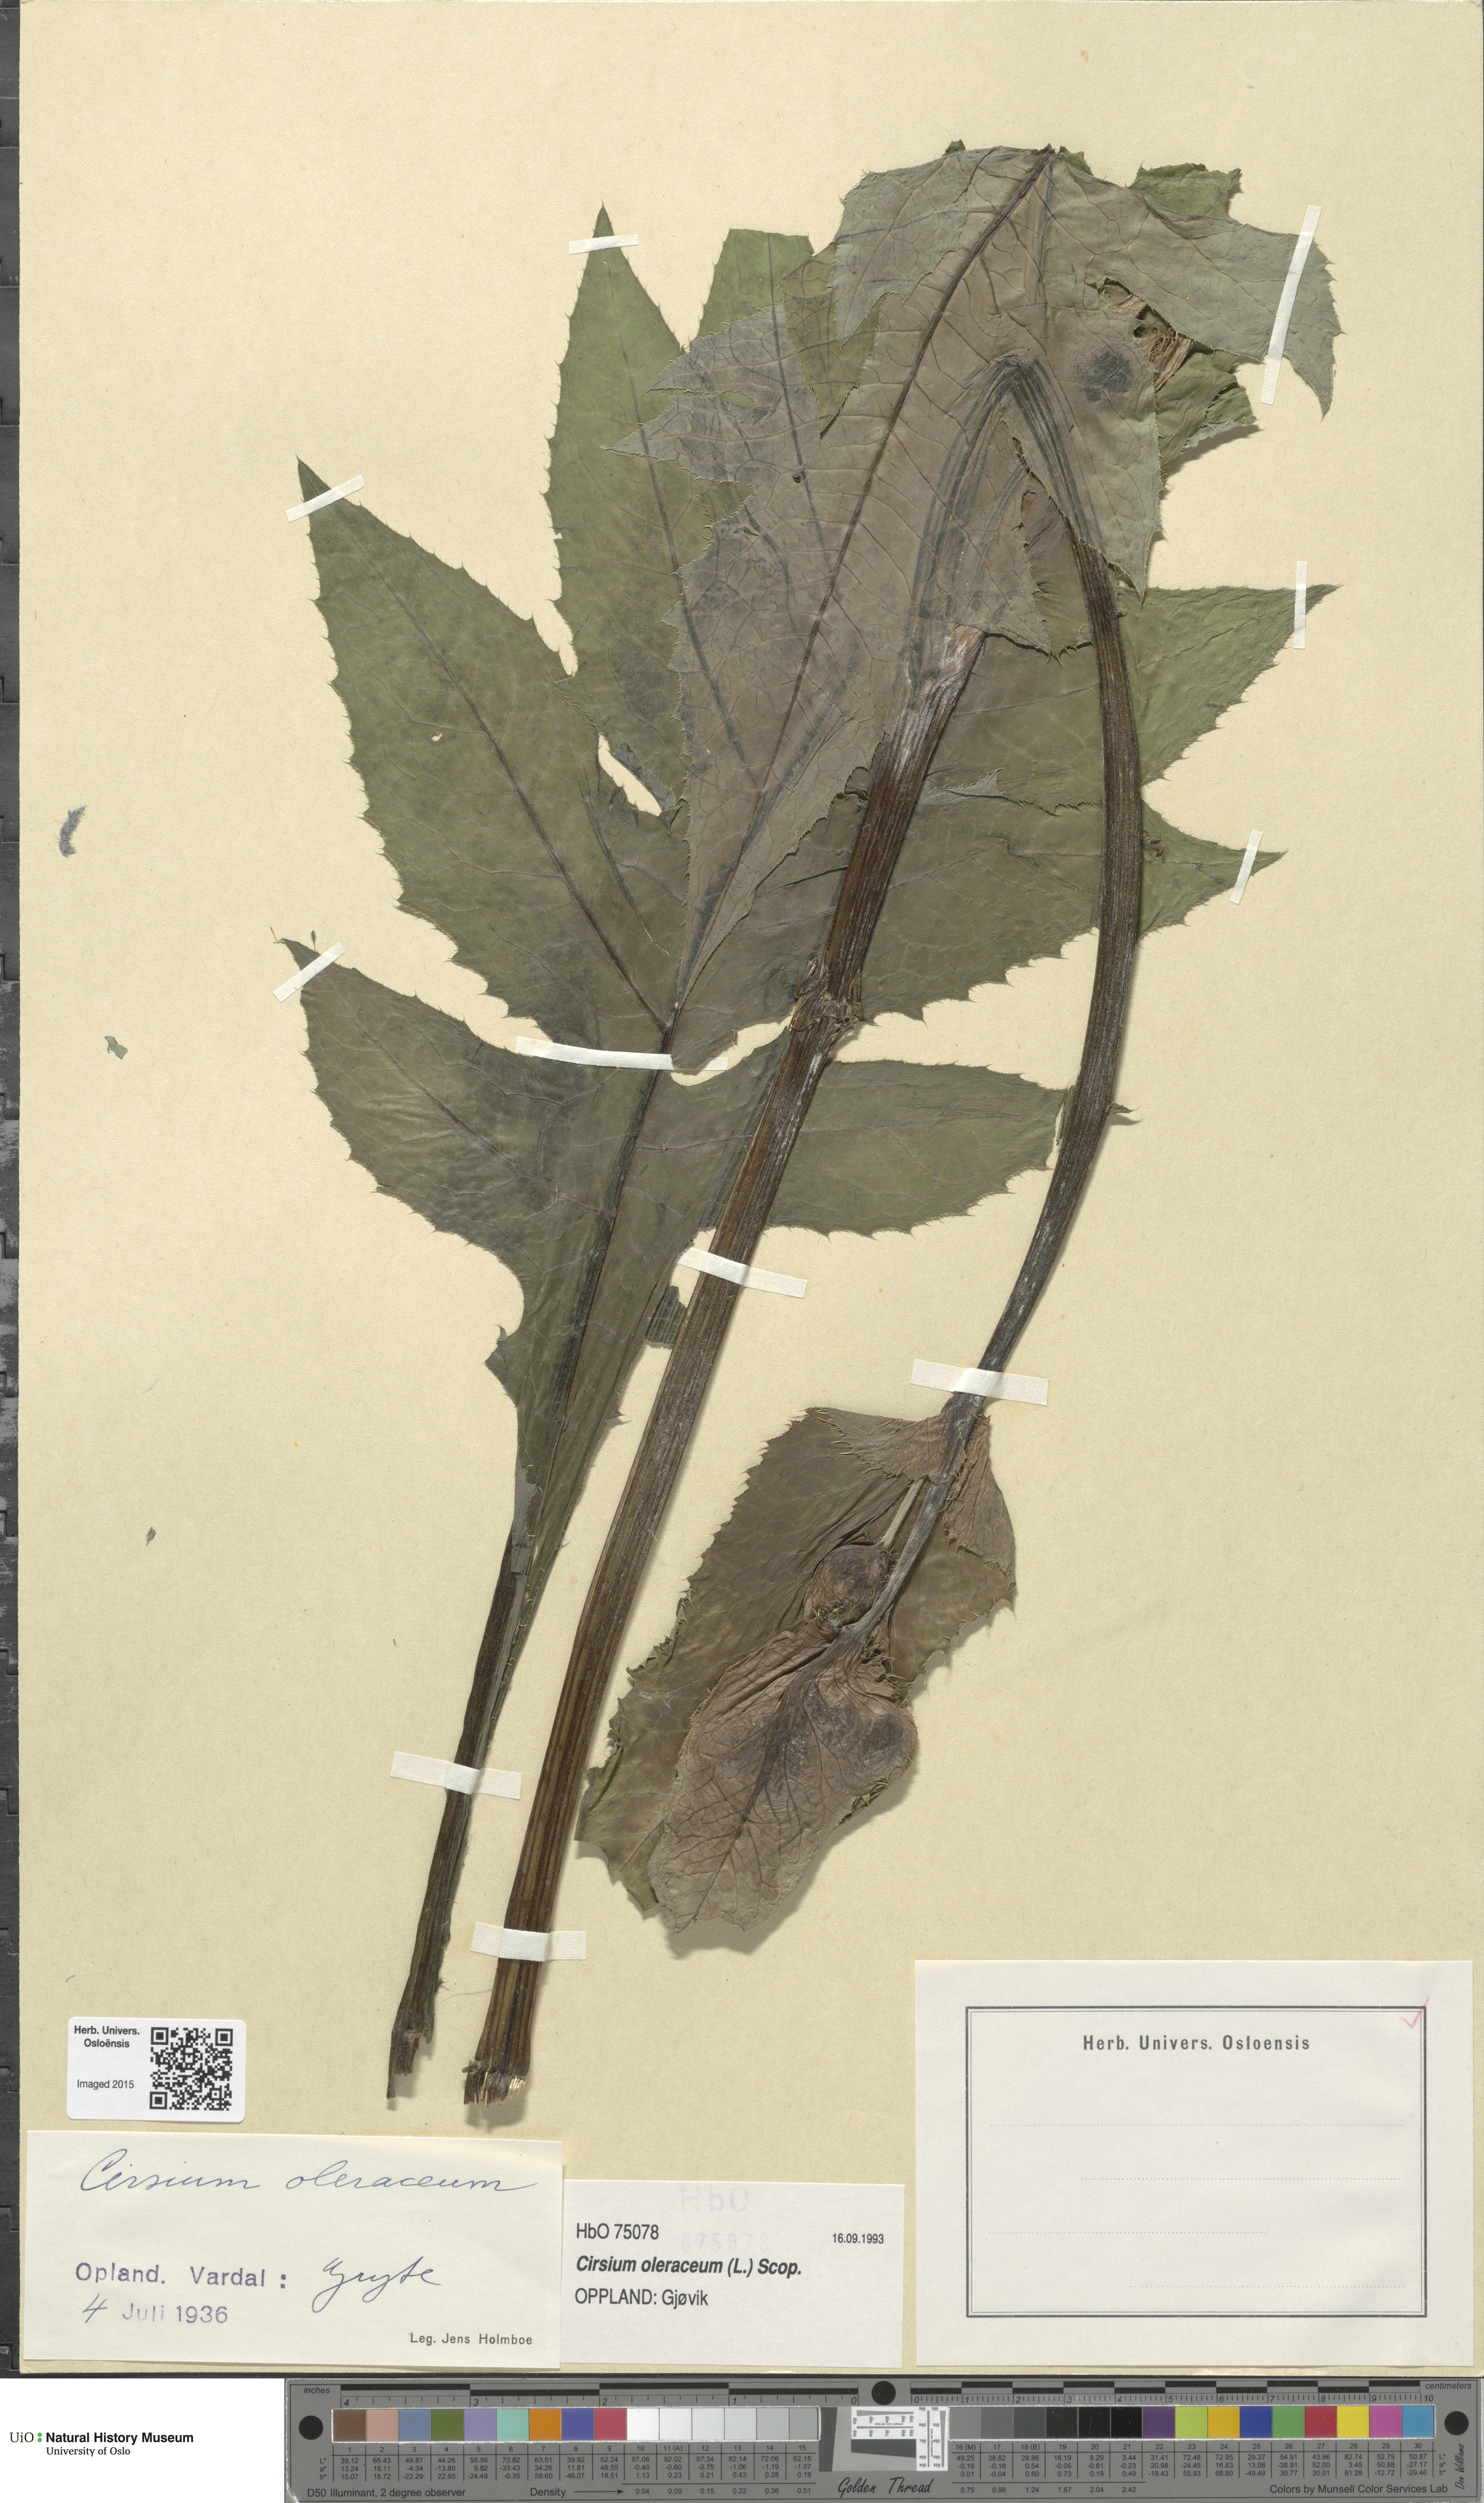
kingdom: Plantae
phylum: Tracheophyta
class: Magnoliopsida
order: Asterales
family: Asteraceae
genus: Cirsium
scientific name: Cirsium oleraceum
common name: Cabbage thistle
